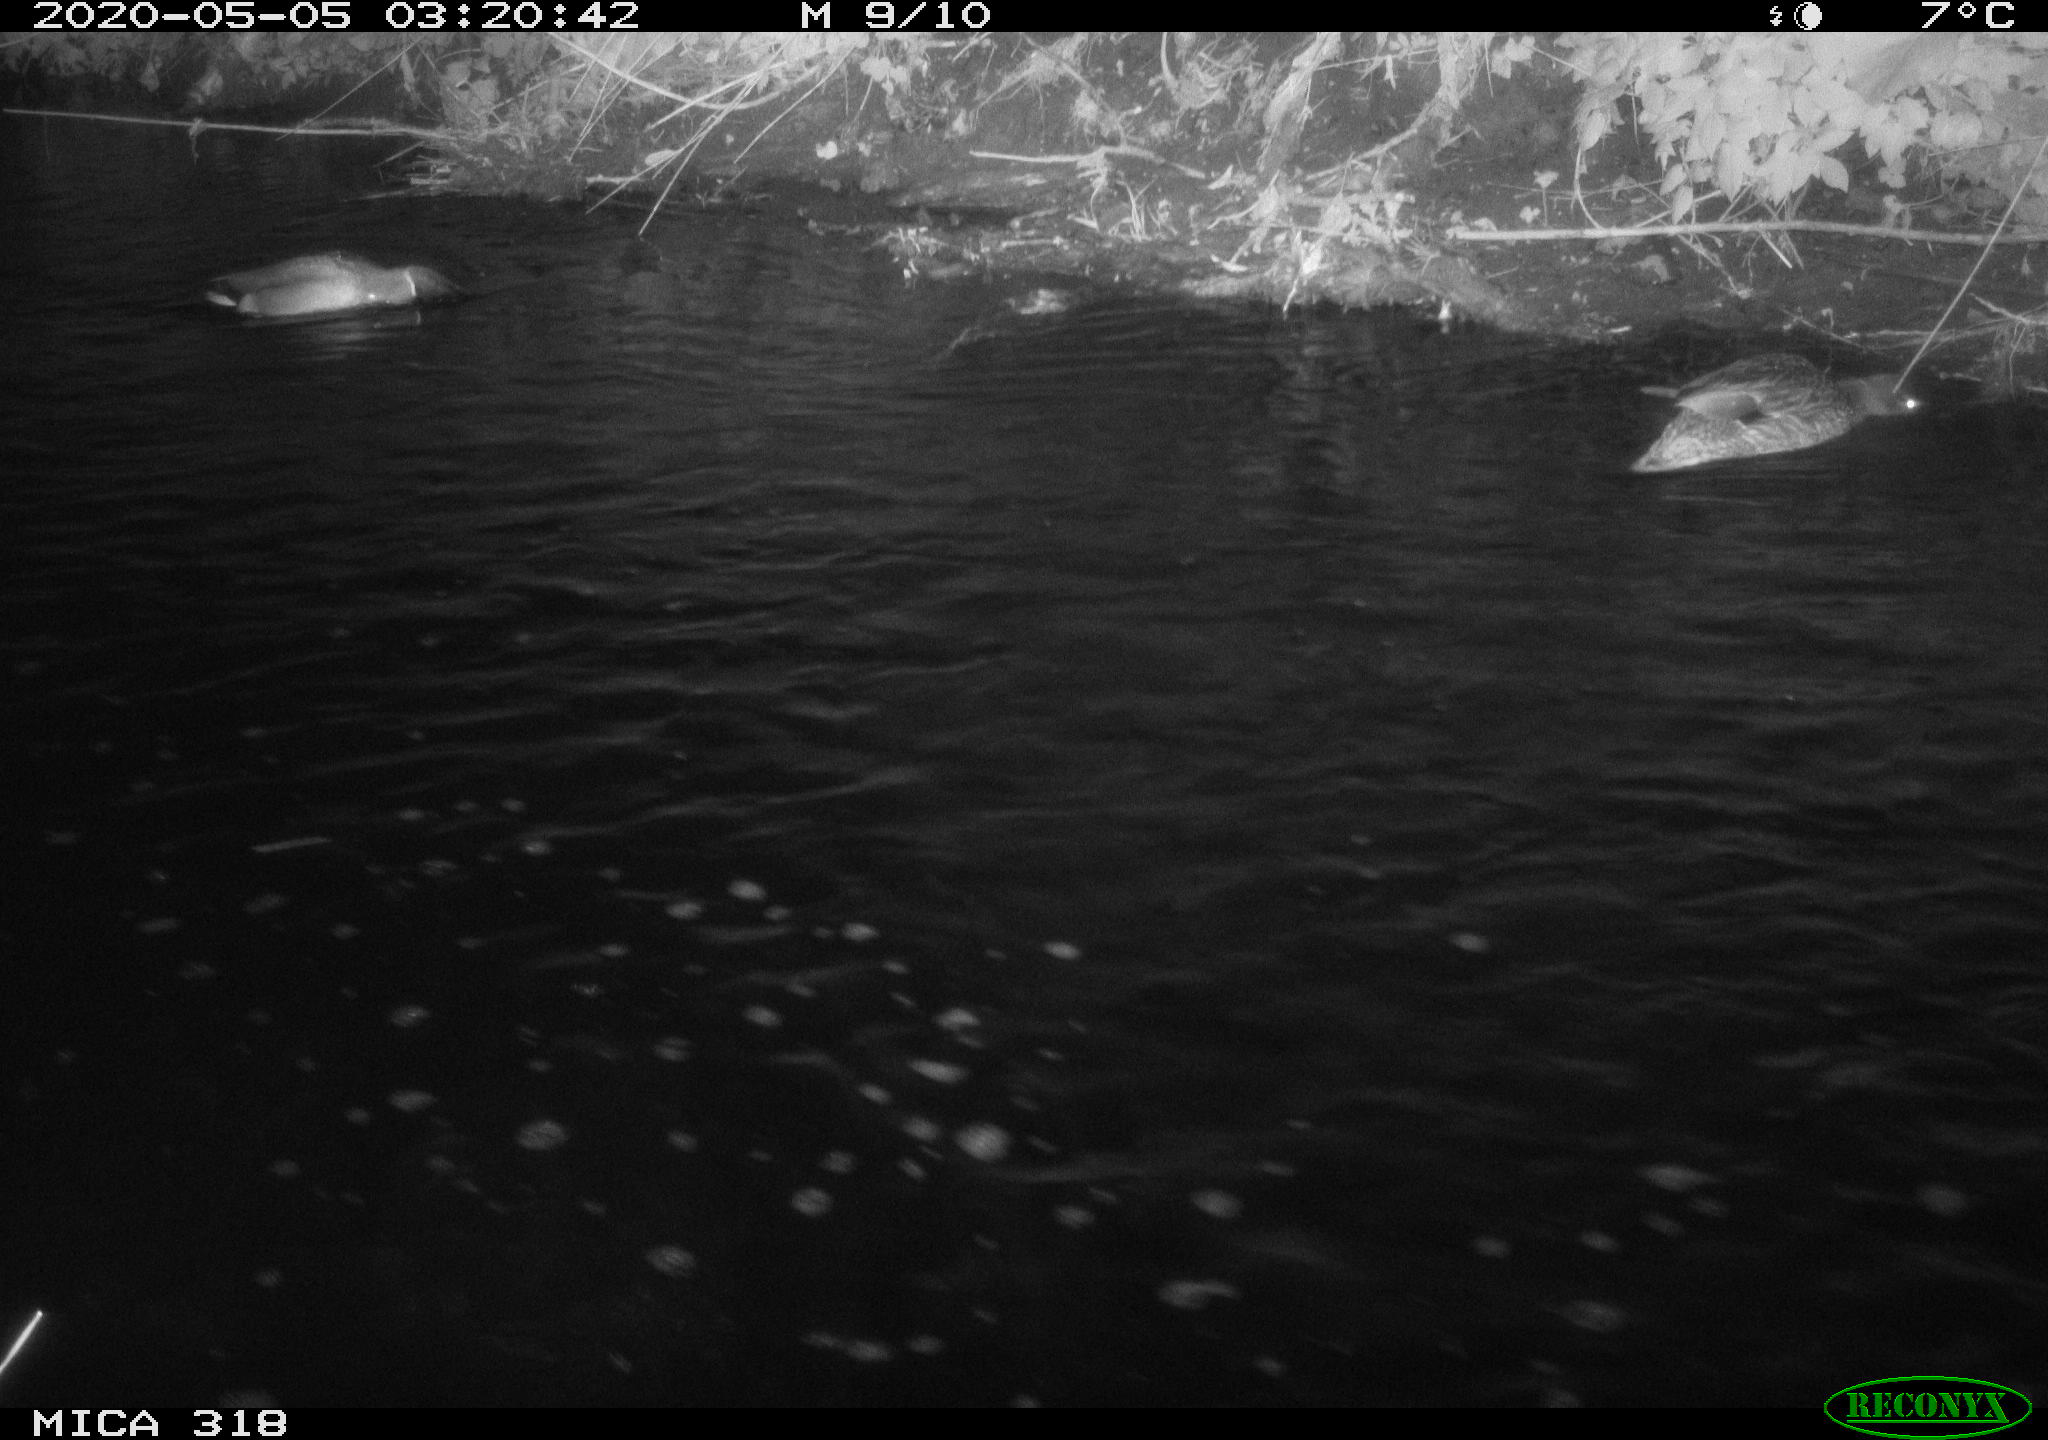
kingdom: Animalia
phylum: Chordata
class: Aves
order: Anseriformes
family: Anatidae
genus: Anas
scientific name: Anas platyrhynchos
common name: Mallard
